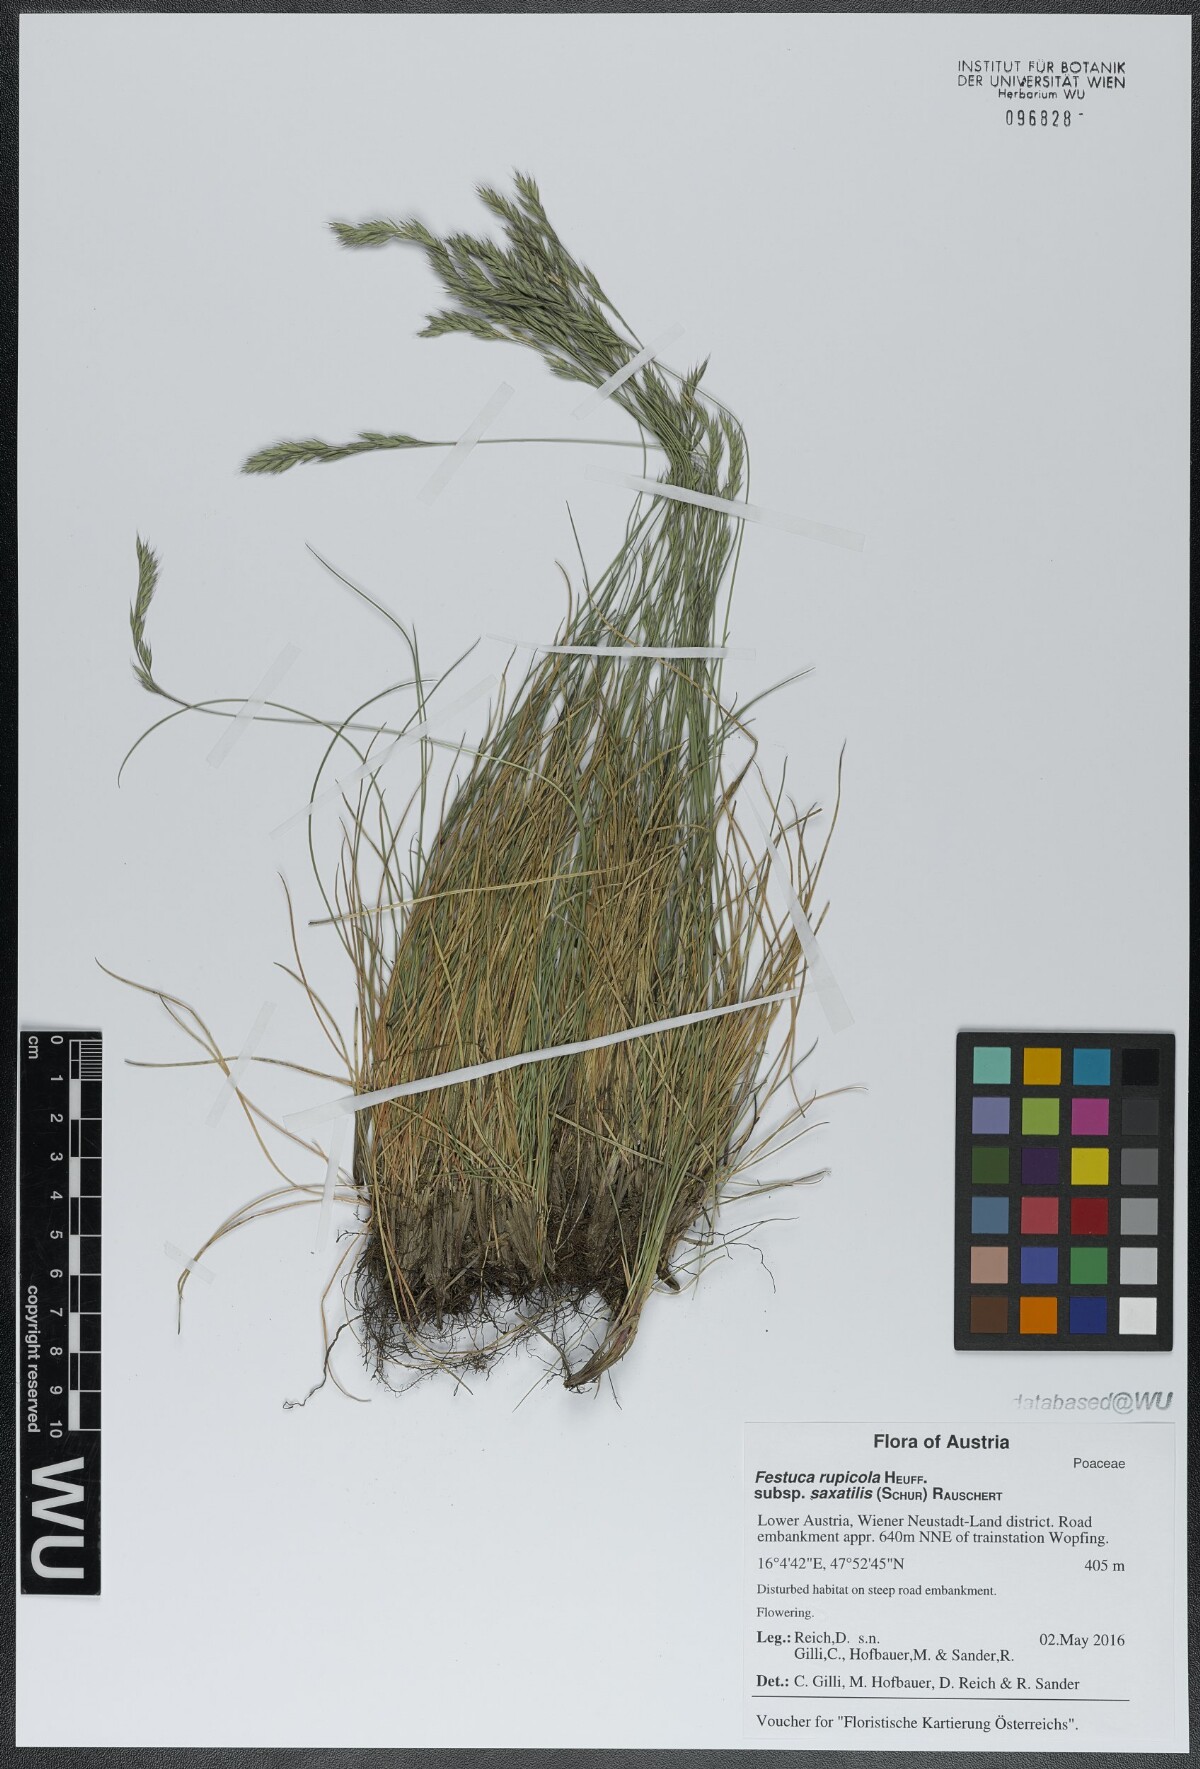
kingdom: Plantae
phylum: Tracheophyta
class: Liliopsida
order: Poales
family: Poaceae
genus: Festuca
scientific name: Festuca saxatilis
